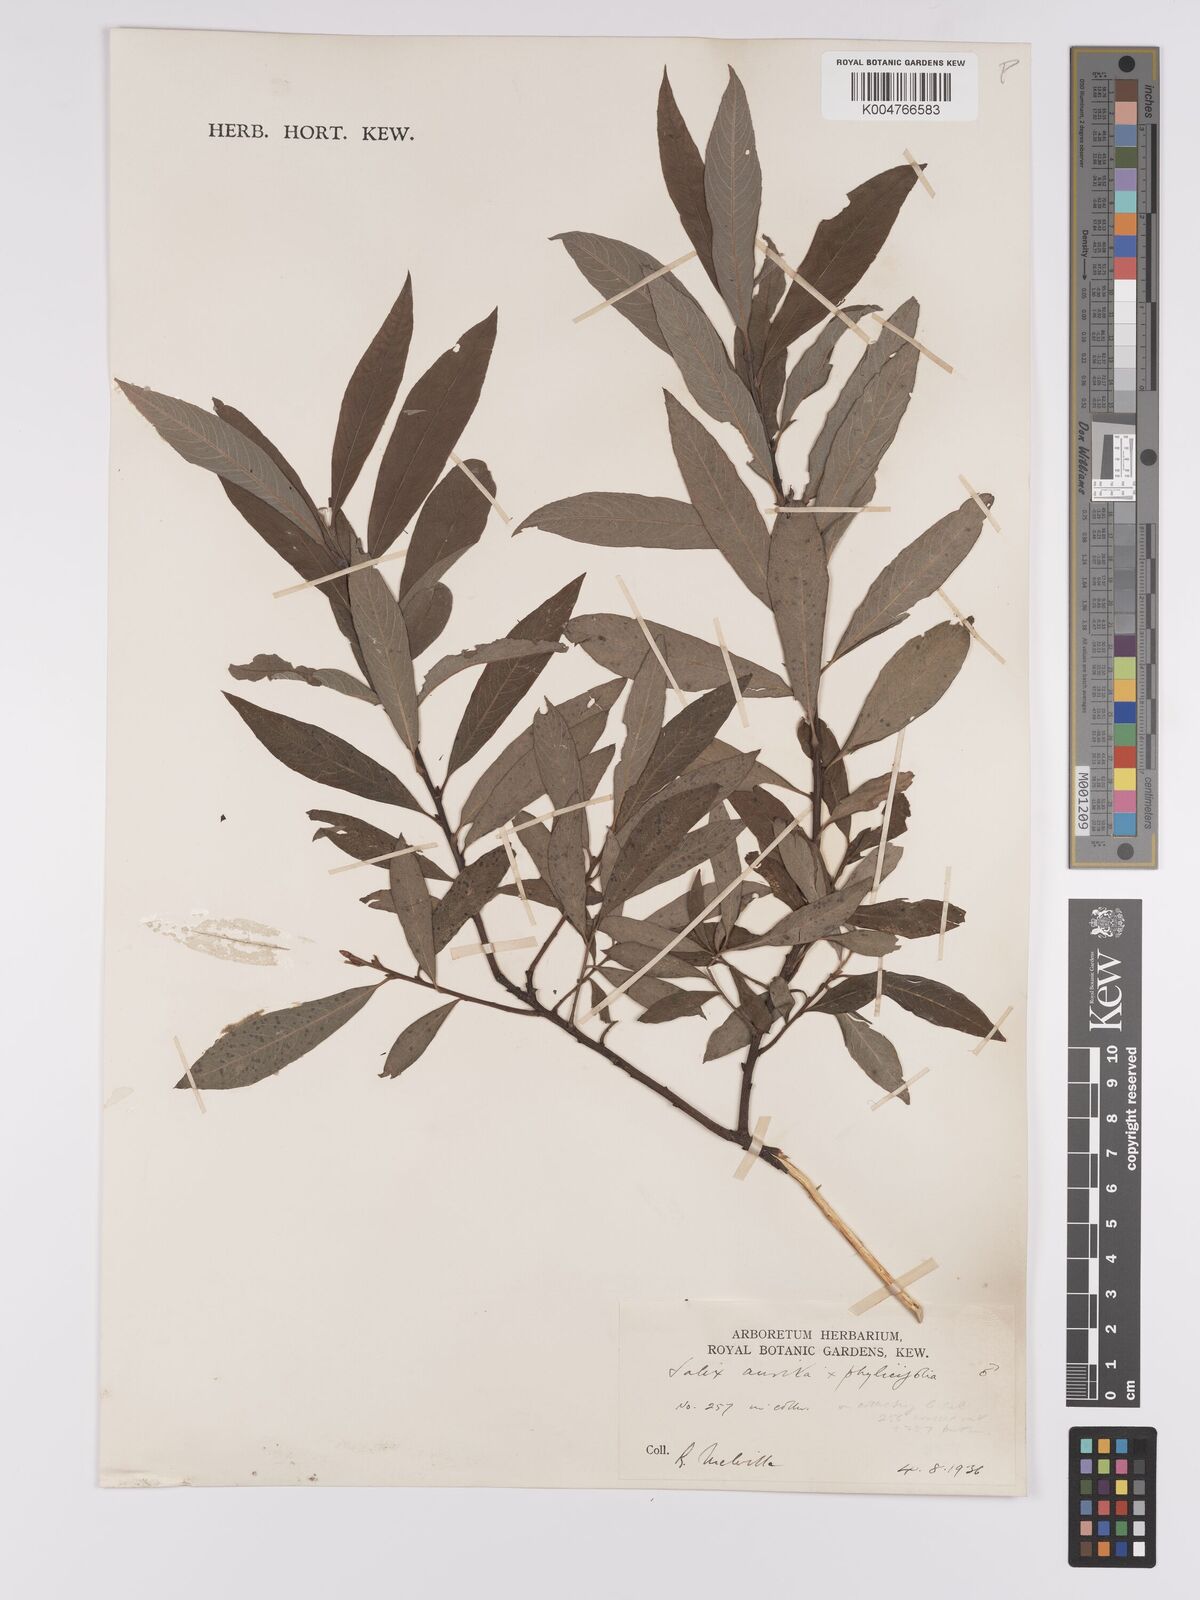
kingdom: Plantae
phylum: Tracheophyta
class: Magnoliopsida
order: Malpighiales
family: Salicaceae
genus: Salix
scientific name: Salix
